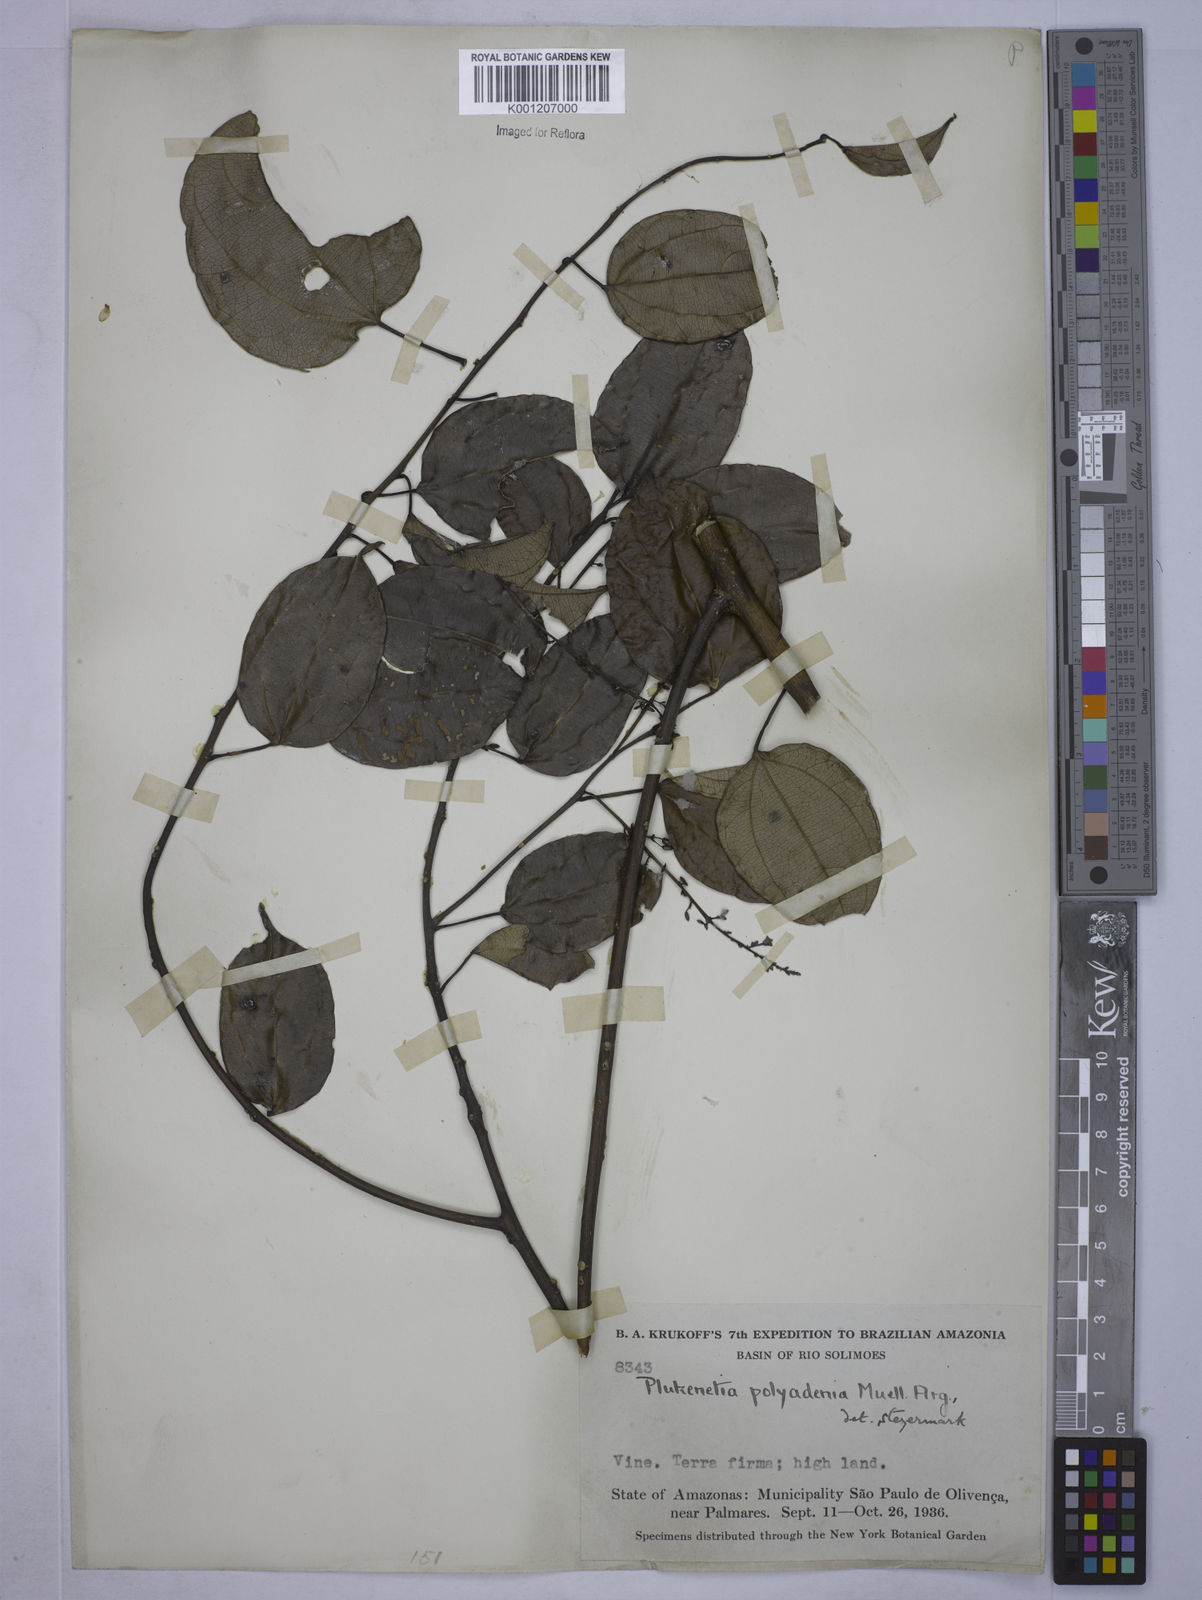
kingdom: Plantae
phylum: Tracheophyta
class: Magnoliopsida
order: Malpighiales
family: Euphorbiaceae
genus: Plukenetia
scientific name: Plukenetia
